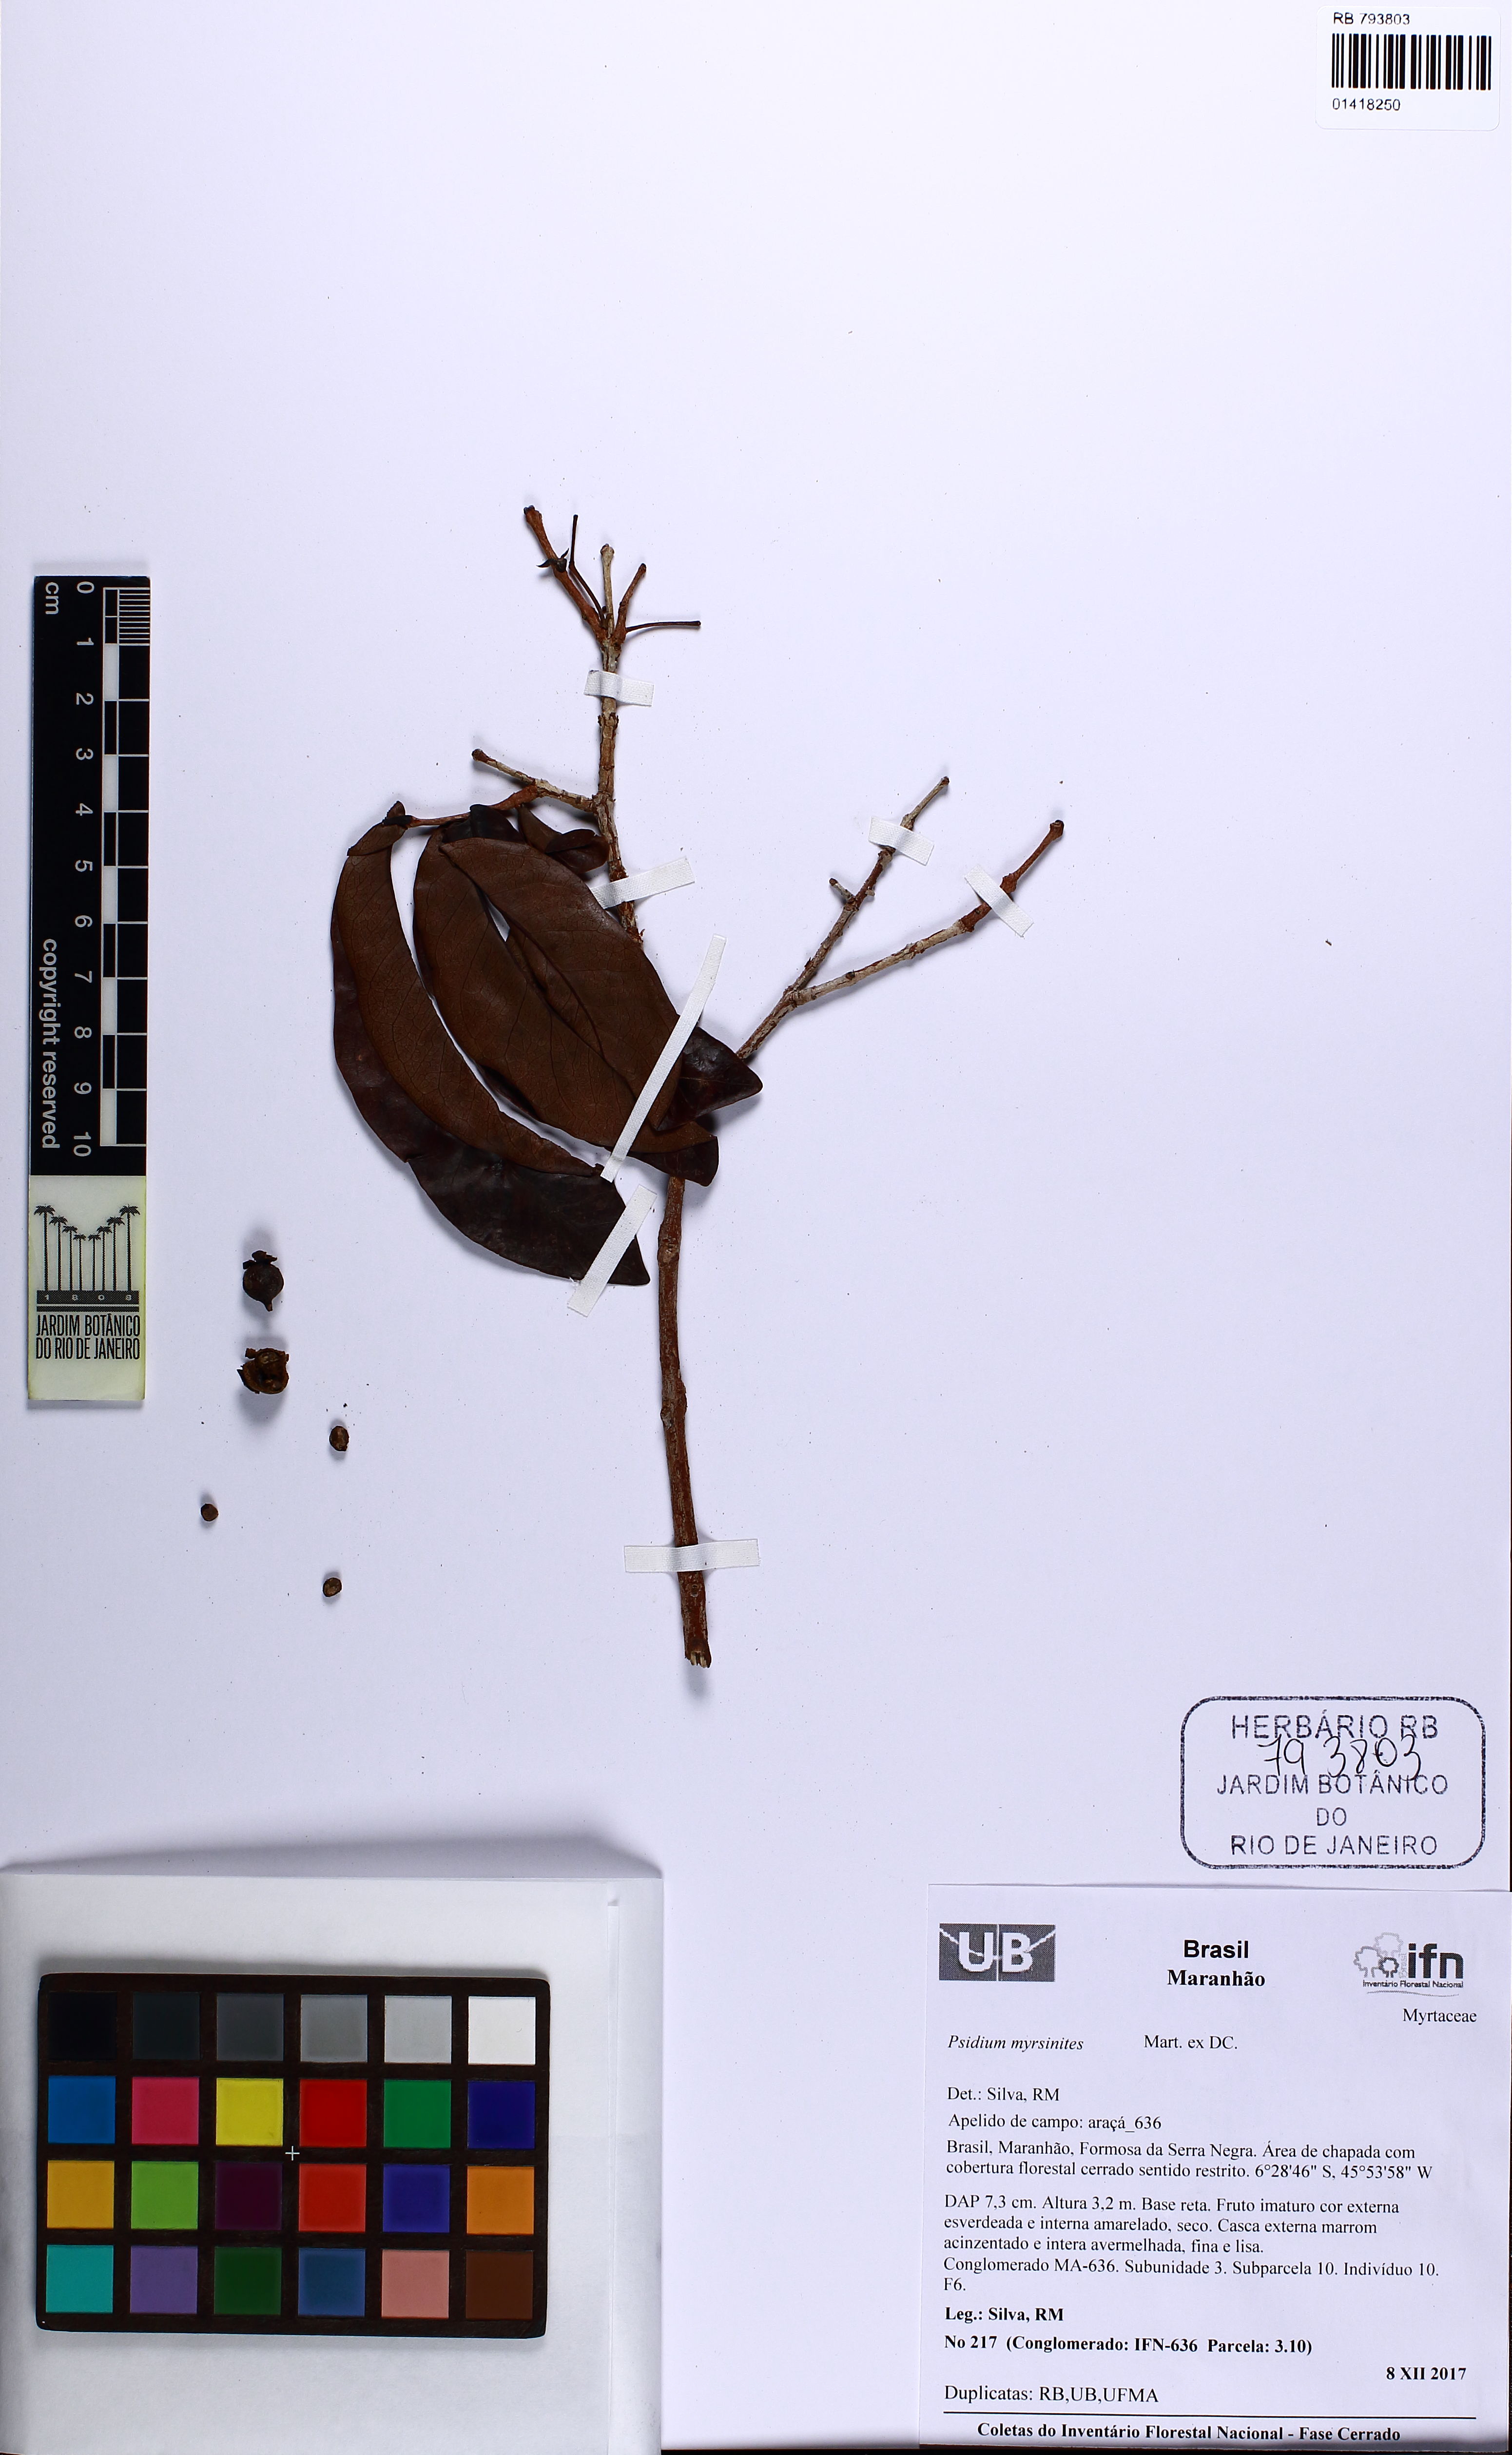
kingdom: Plantae
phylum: Tracheophyta
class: Magnoliopsida
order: Myrtales
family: Myrtaceae
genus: Psidium
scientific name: Psidium myrsinites
